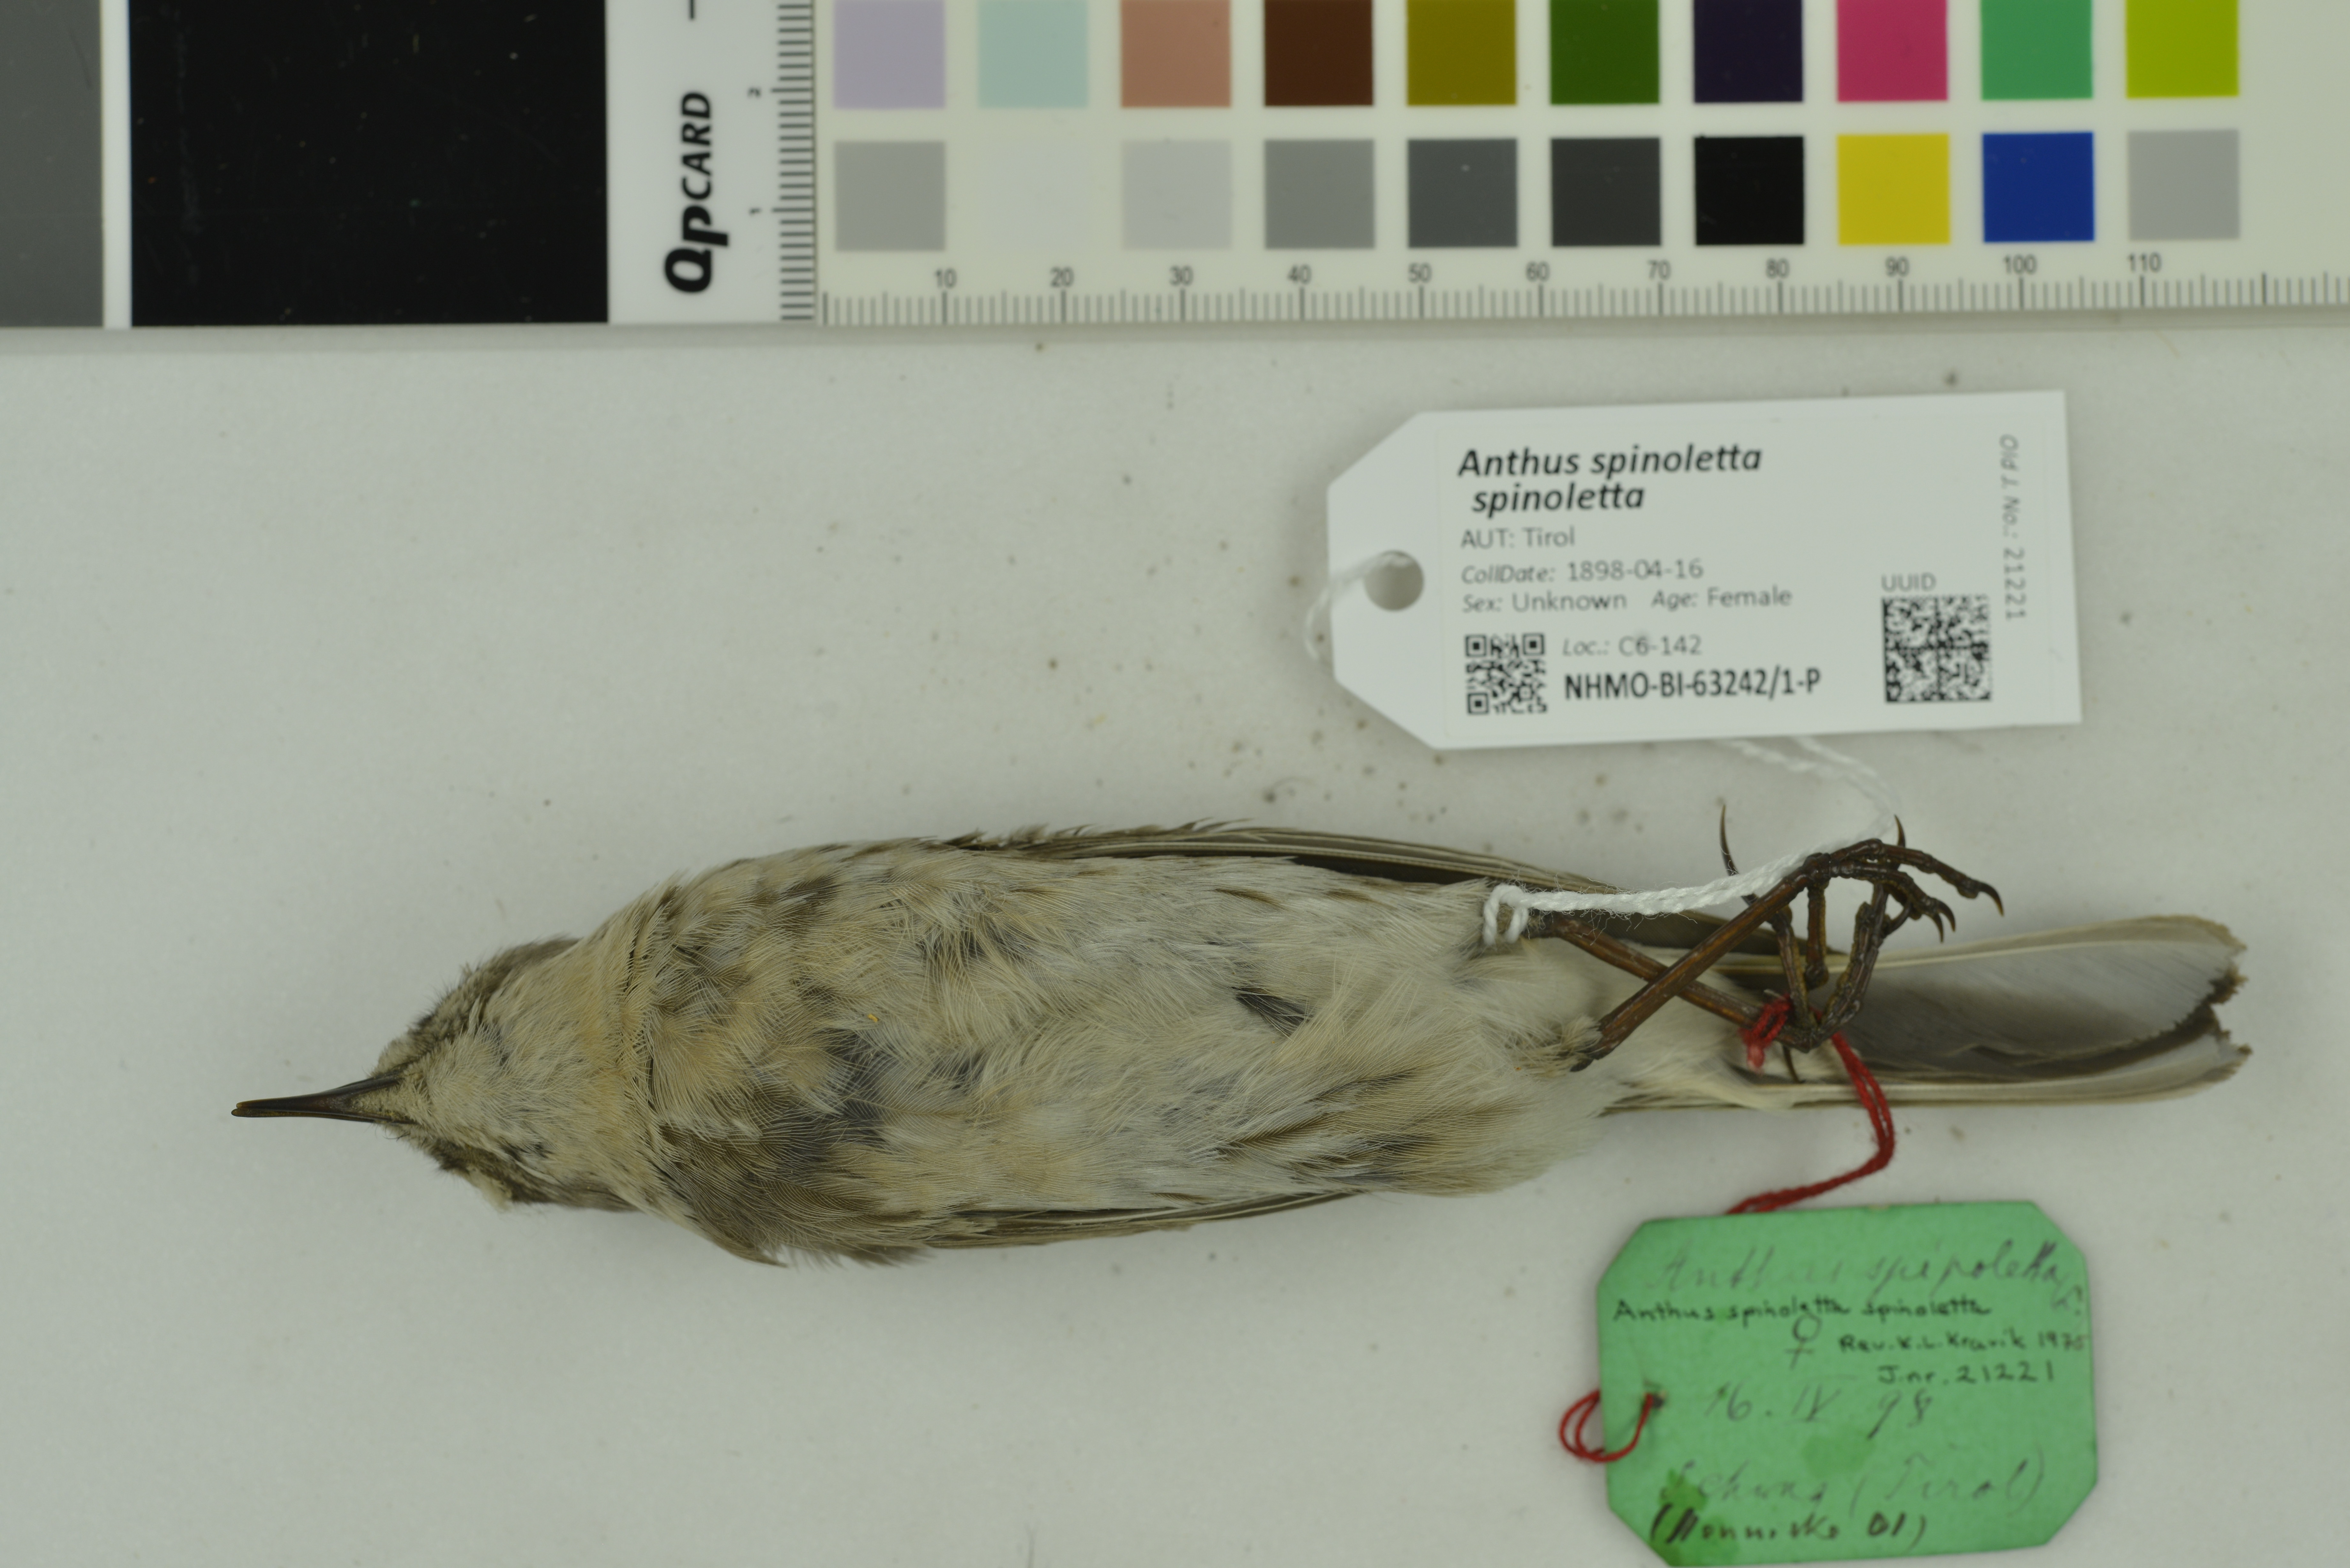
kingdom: Animalia
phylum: Chordata
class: Aves
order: Passeriformes
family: Motacillidae
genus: Anthus
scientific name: Anthus spinoletta
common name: Water pipit
